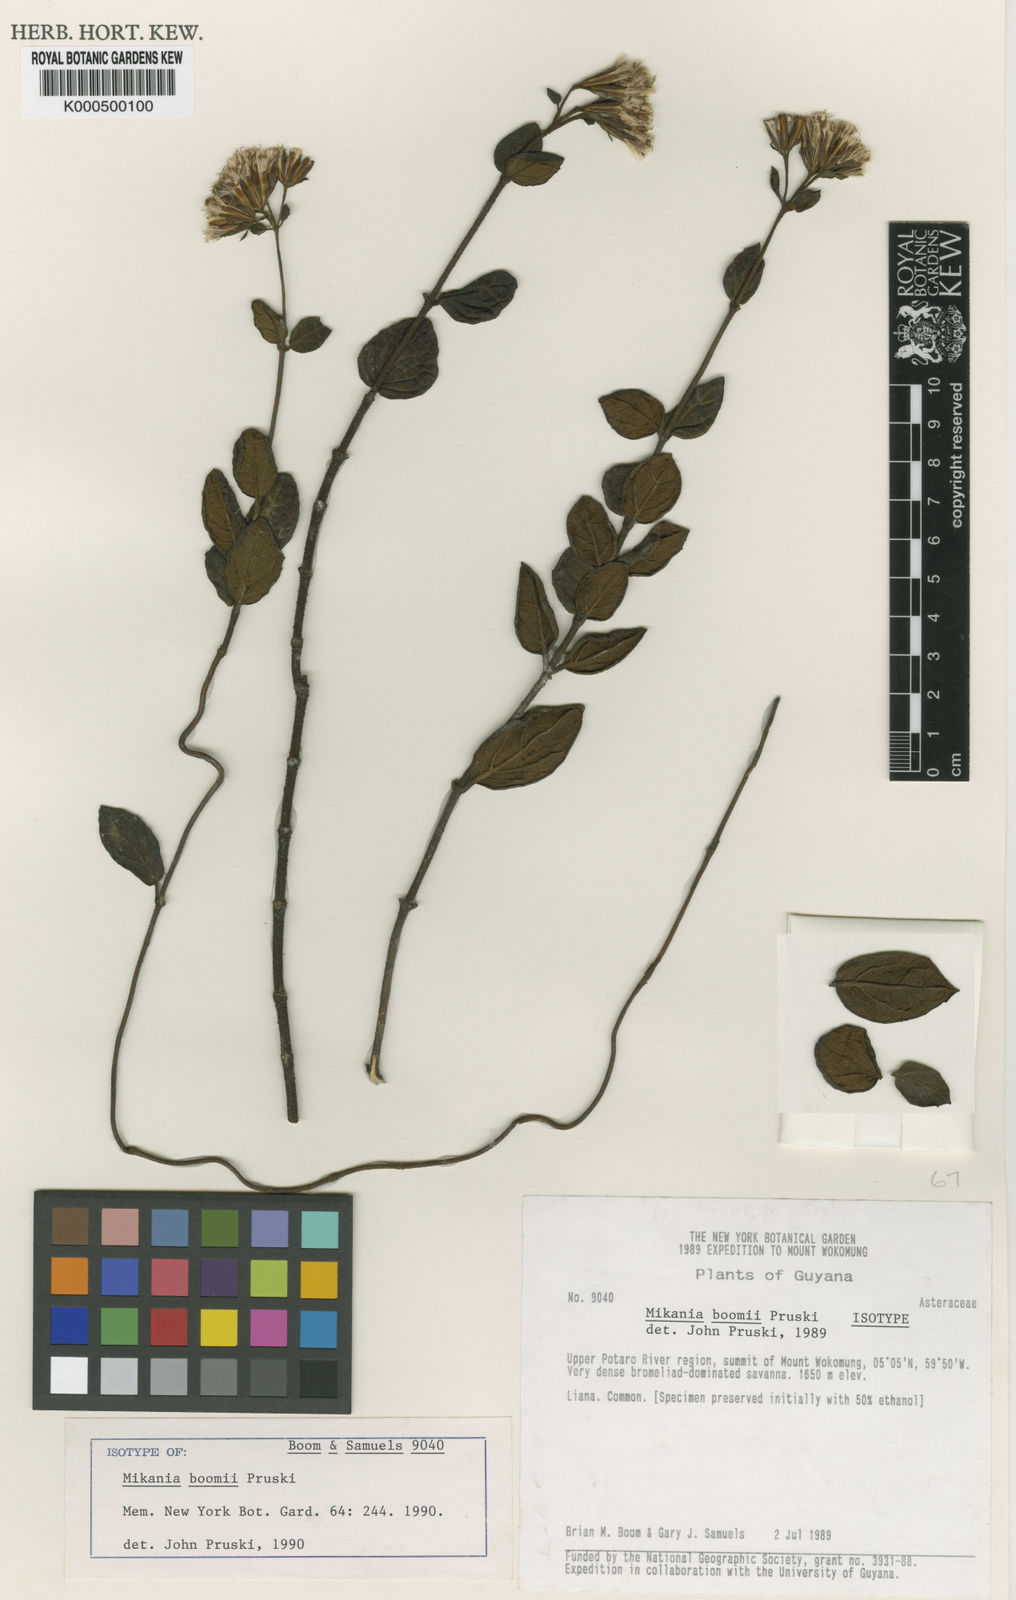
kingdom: Plantae
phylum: Tracheophyta
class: Magnoliopsida
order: Asterales
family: Asteraceae
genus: Mikania
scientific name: Mikania boomii
